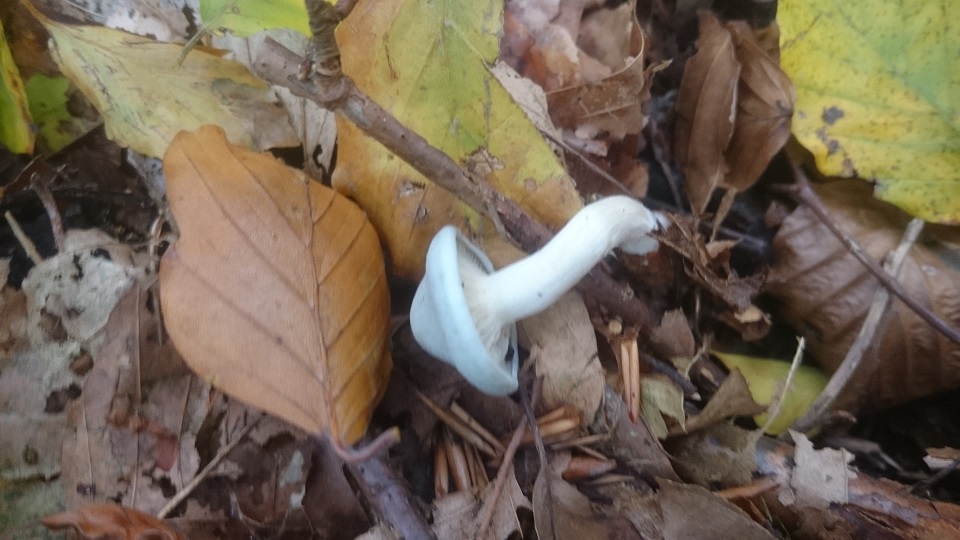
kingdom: Fungi
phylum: Basidiomycota
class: Agaricomycetes
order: Agaricales
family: Tricholomataceae
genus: Clitocybe
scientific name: Clitocybe odora
